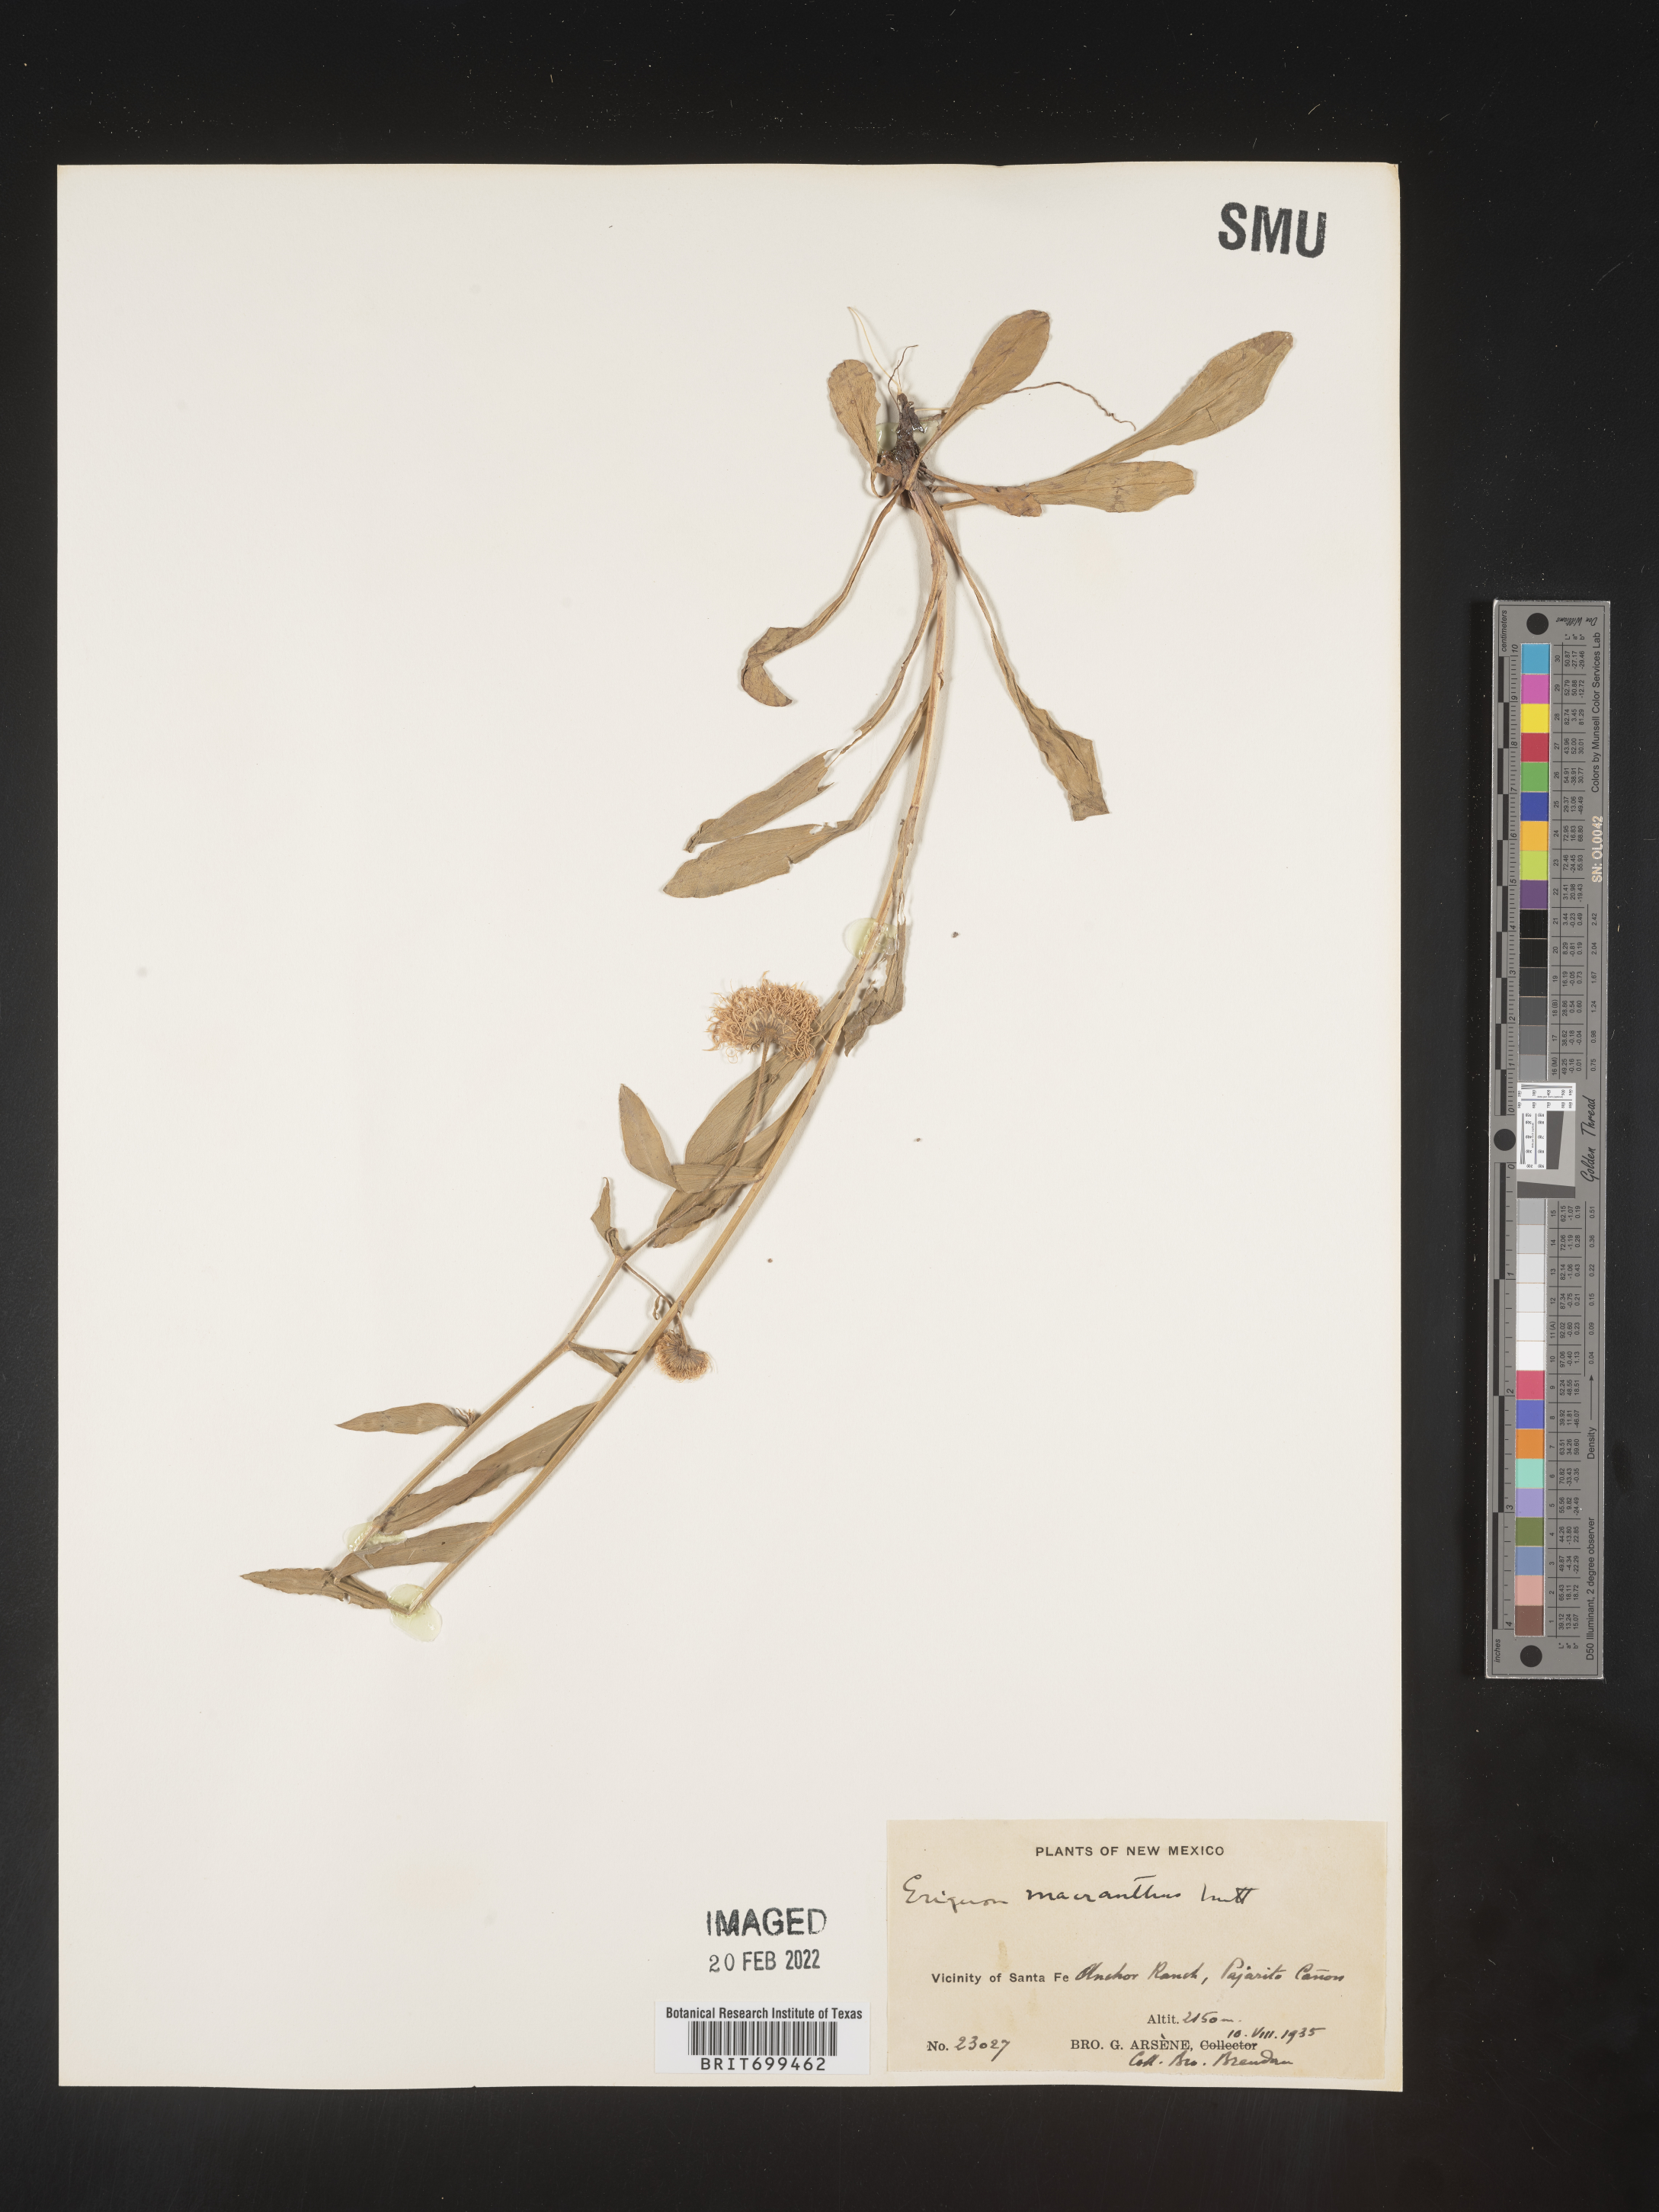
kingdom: Plantae
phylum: Tracheophyta
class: Magnoliopsida
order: Asterales
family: Asteraceae
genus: Erigeron
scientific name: Erigeron speciosus
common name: Aspen fleabane
